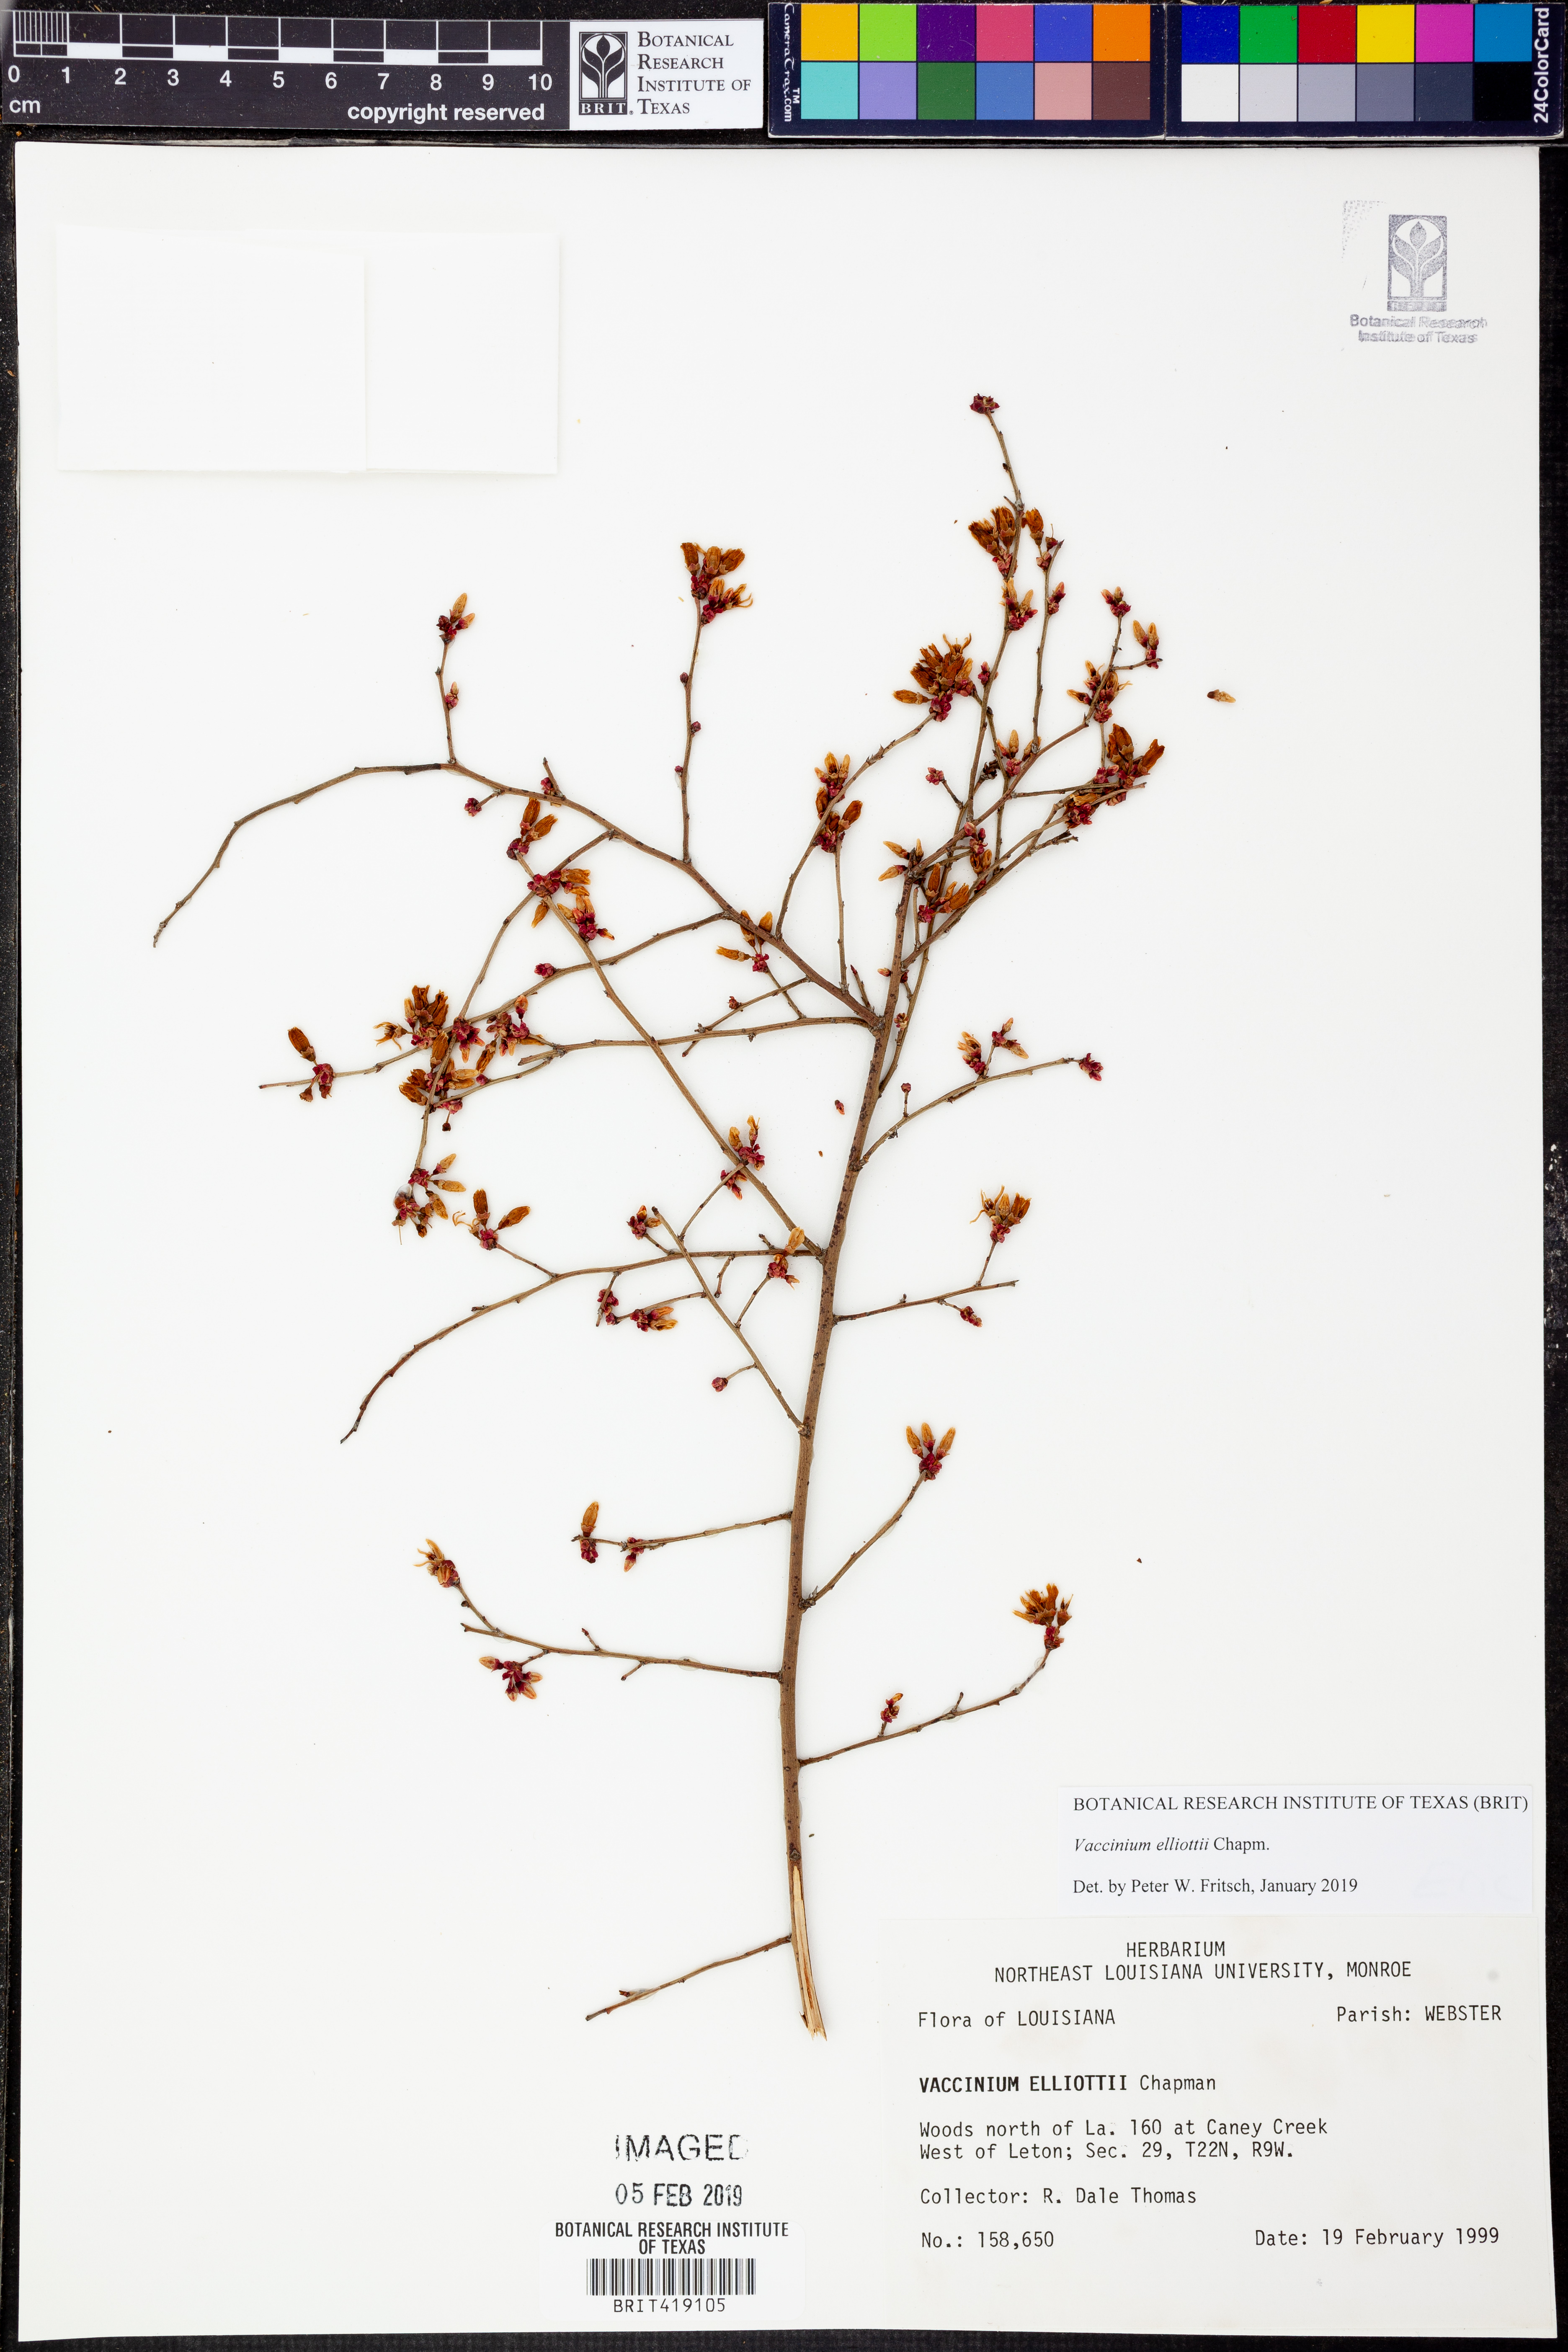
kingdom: Plantae
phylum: Tracheophyta
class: Magnoliopsida
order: Ericales
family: Ericaceae
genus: Vaccinium
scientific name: Vaccinium corymbosum
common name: Blueberry
